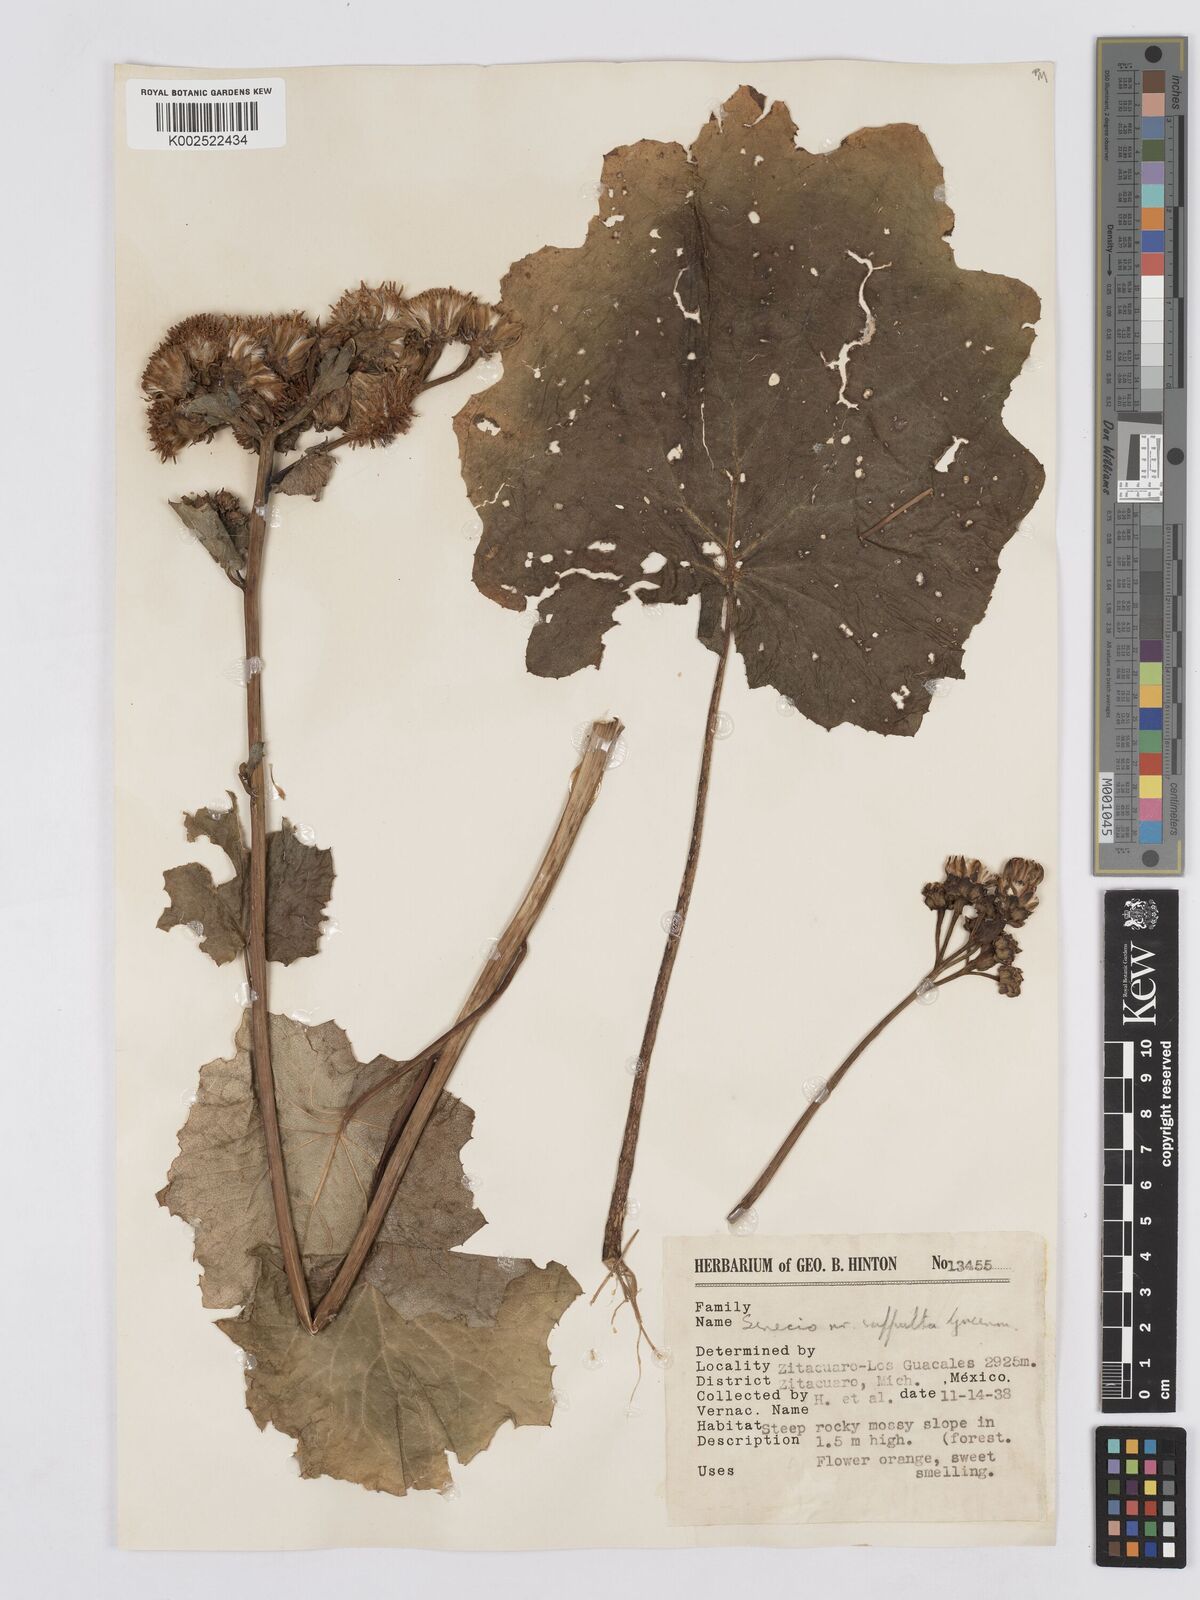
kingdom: Plantae
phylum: Tracheophyta
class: Magnoliopsida
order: Asterales
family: Asteraceae
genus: Roldana
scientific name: Roldana suffulta
